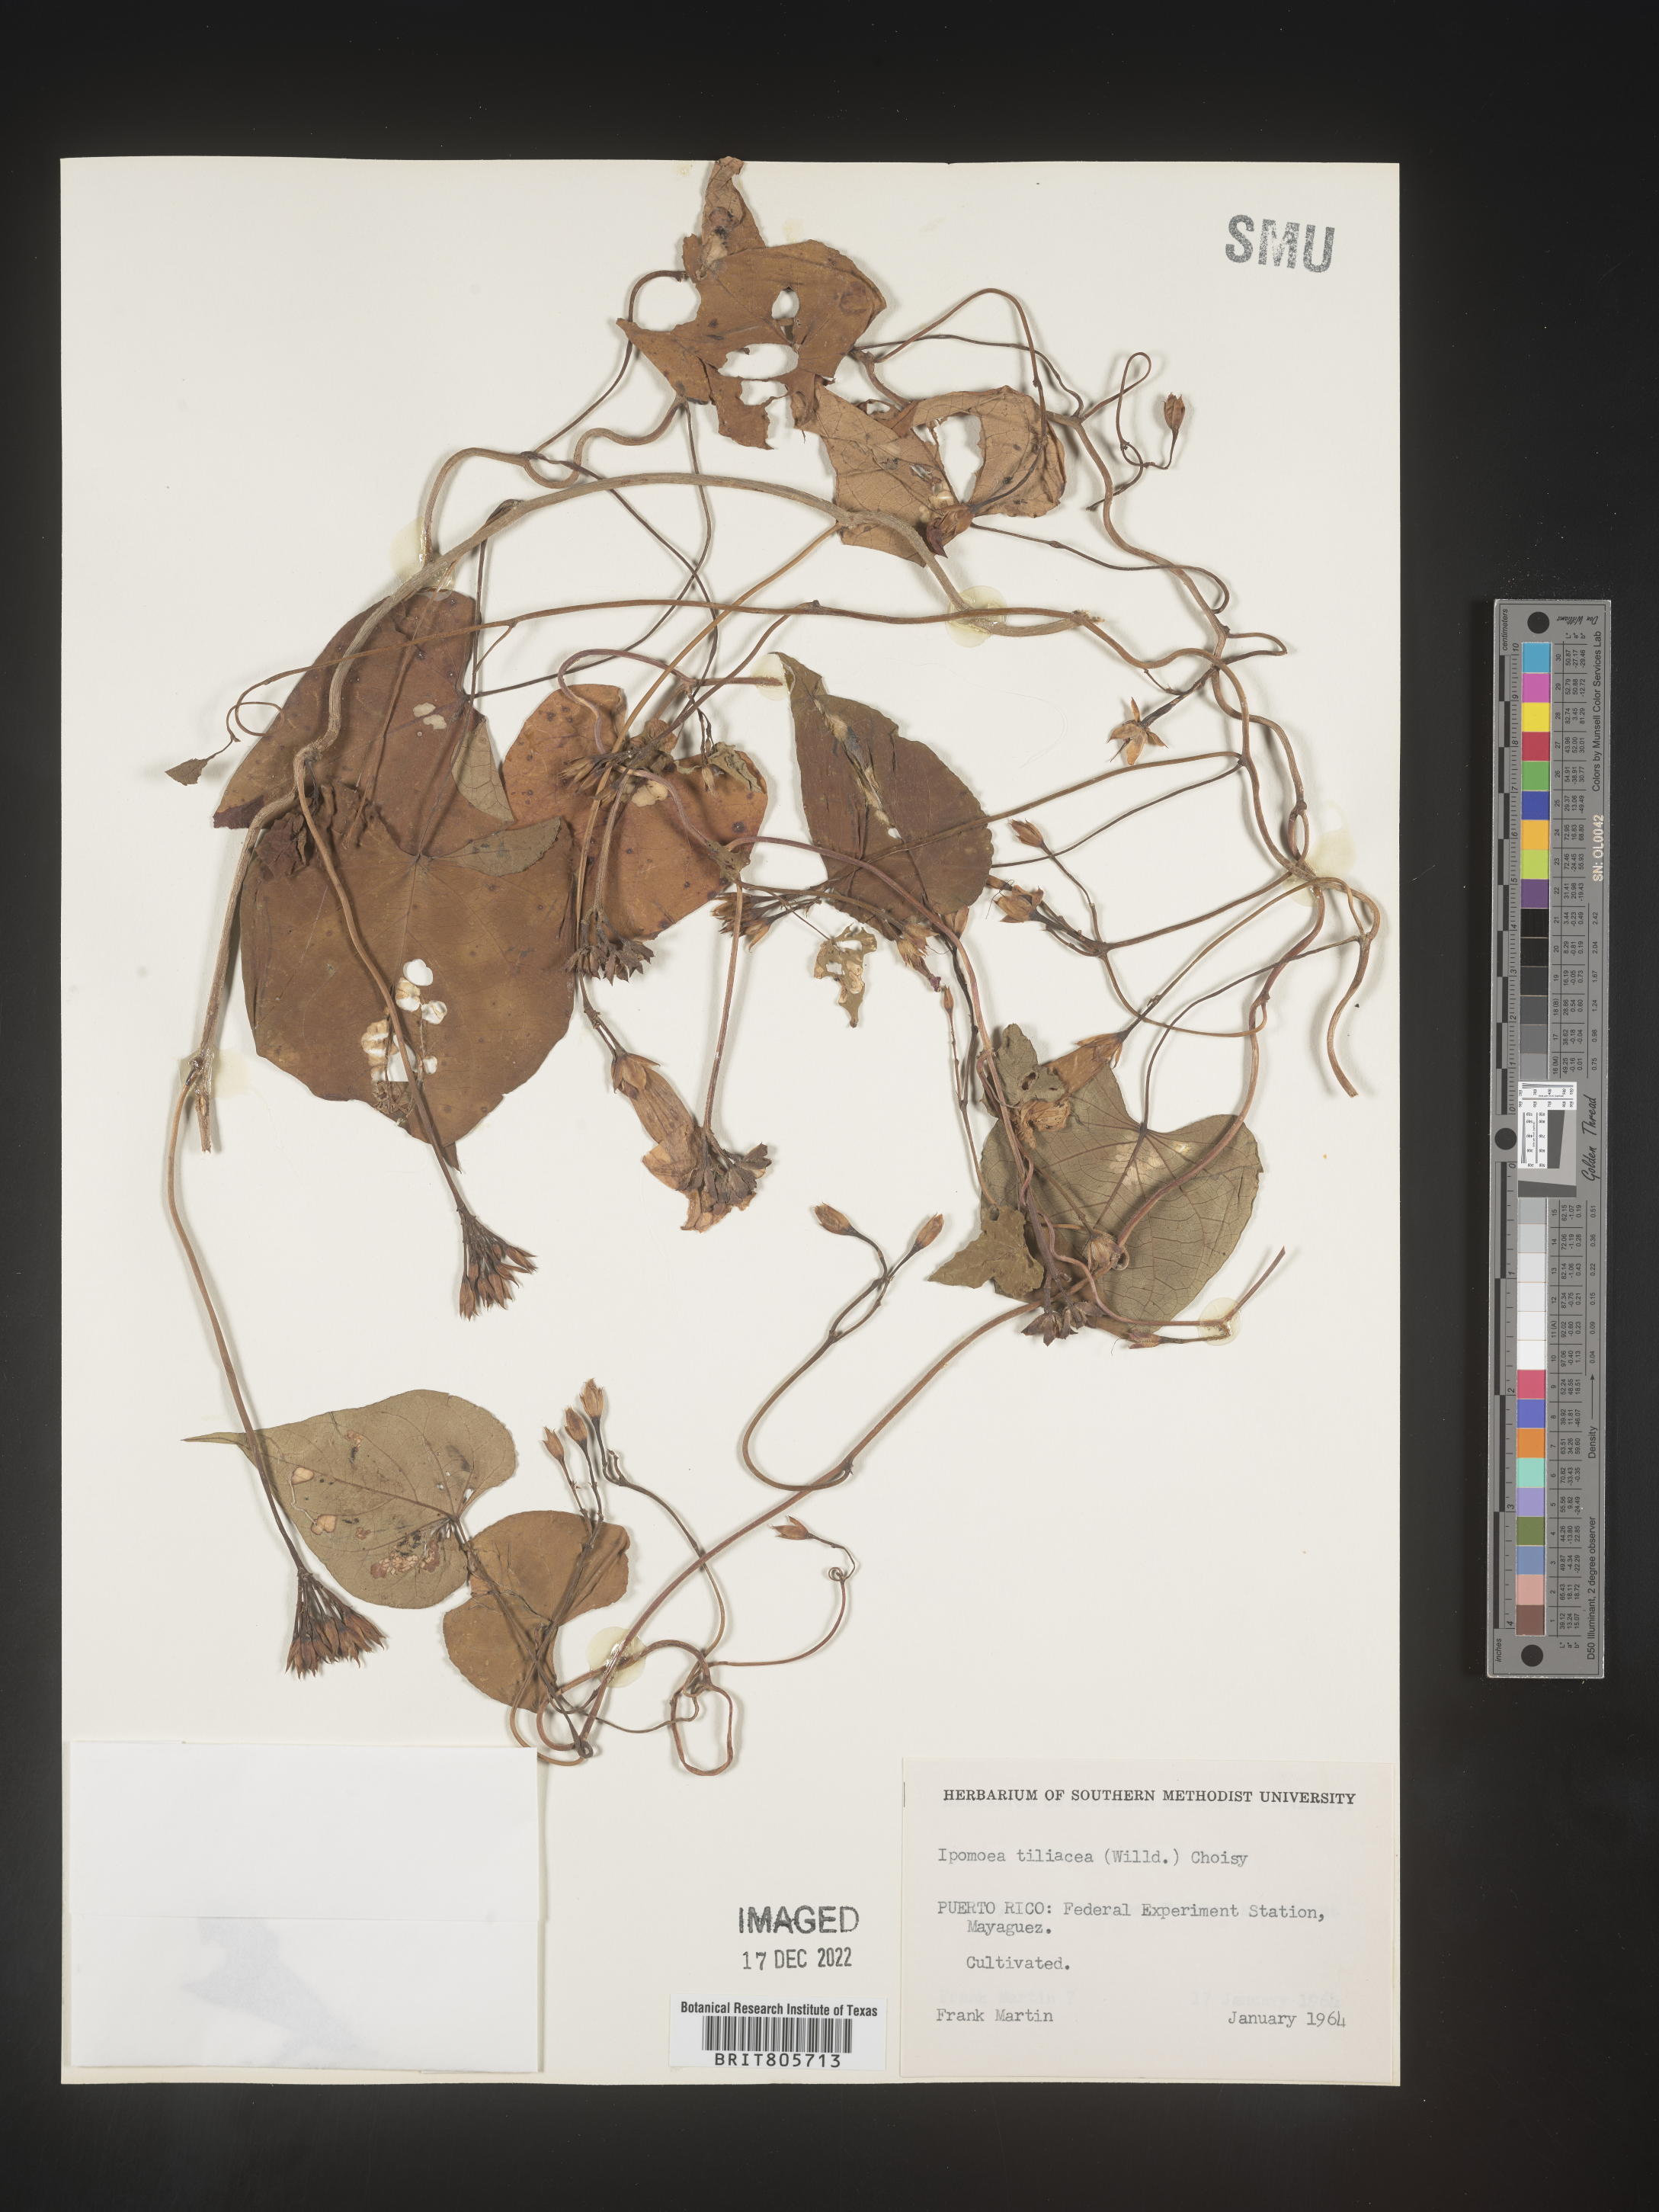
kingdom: Plantae
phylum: Tracheophyta
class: Magnoliopsida
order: Solanales
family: Convolvulaceae
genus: Ipomoea
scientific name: Ipomoea
